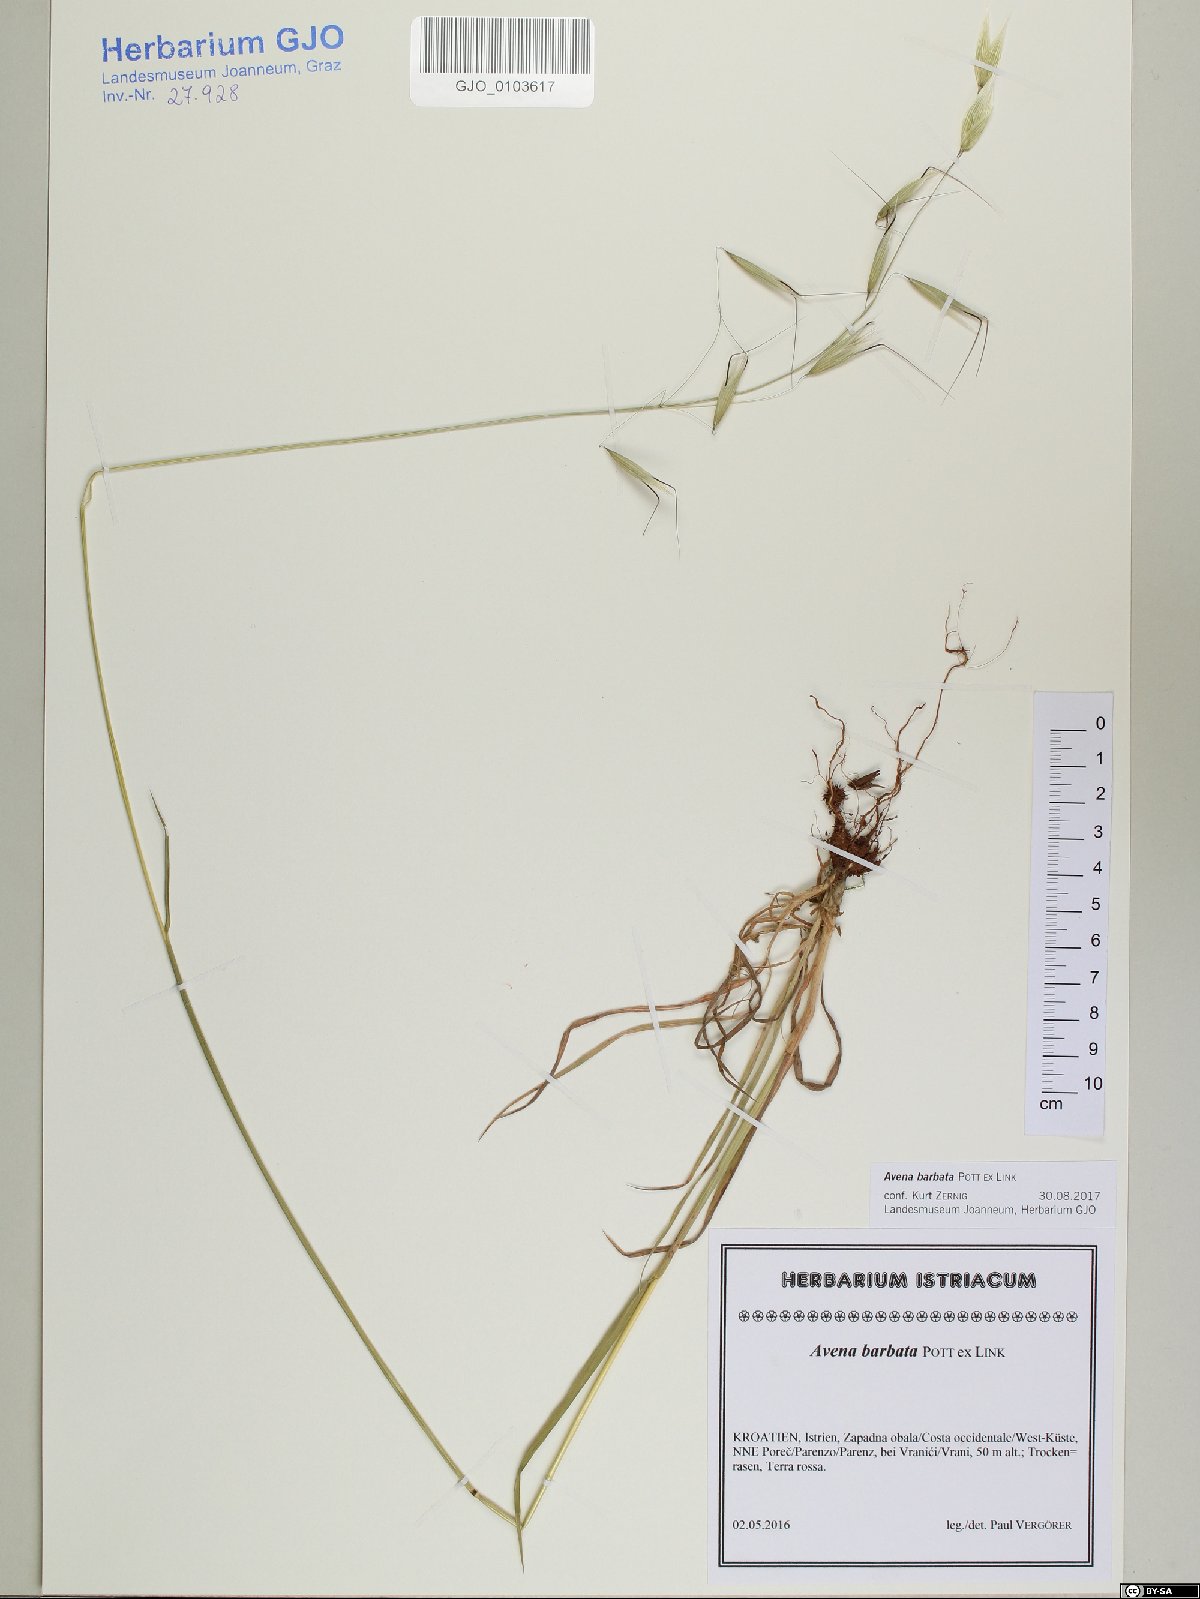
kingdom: Plantae
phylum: Tracheophyta
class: Liliopsida
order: Poales
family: Poaceae
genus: Avena
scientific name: Avena barbata
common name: Slender oat
